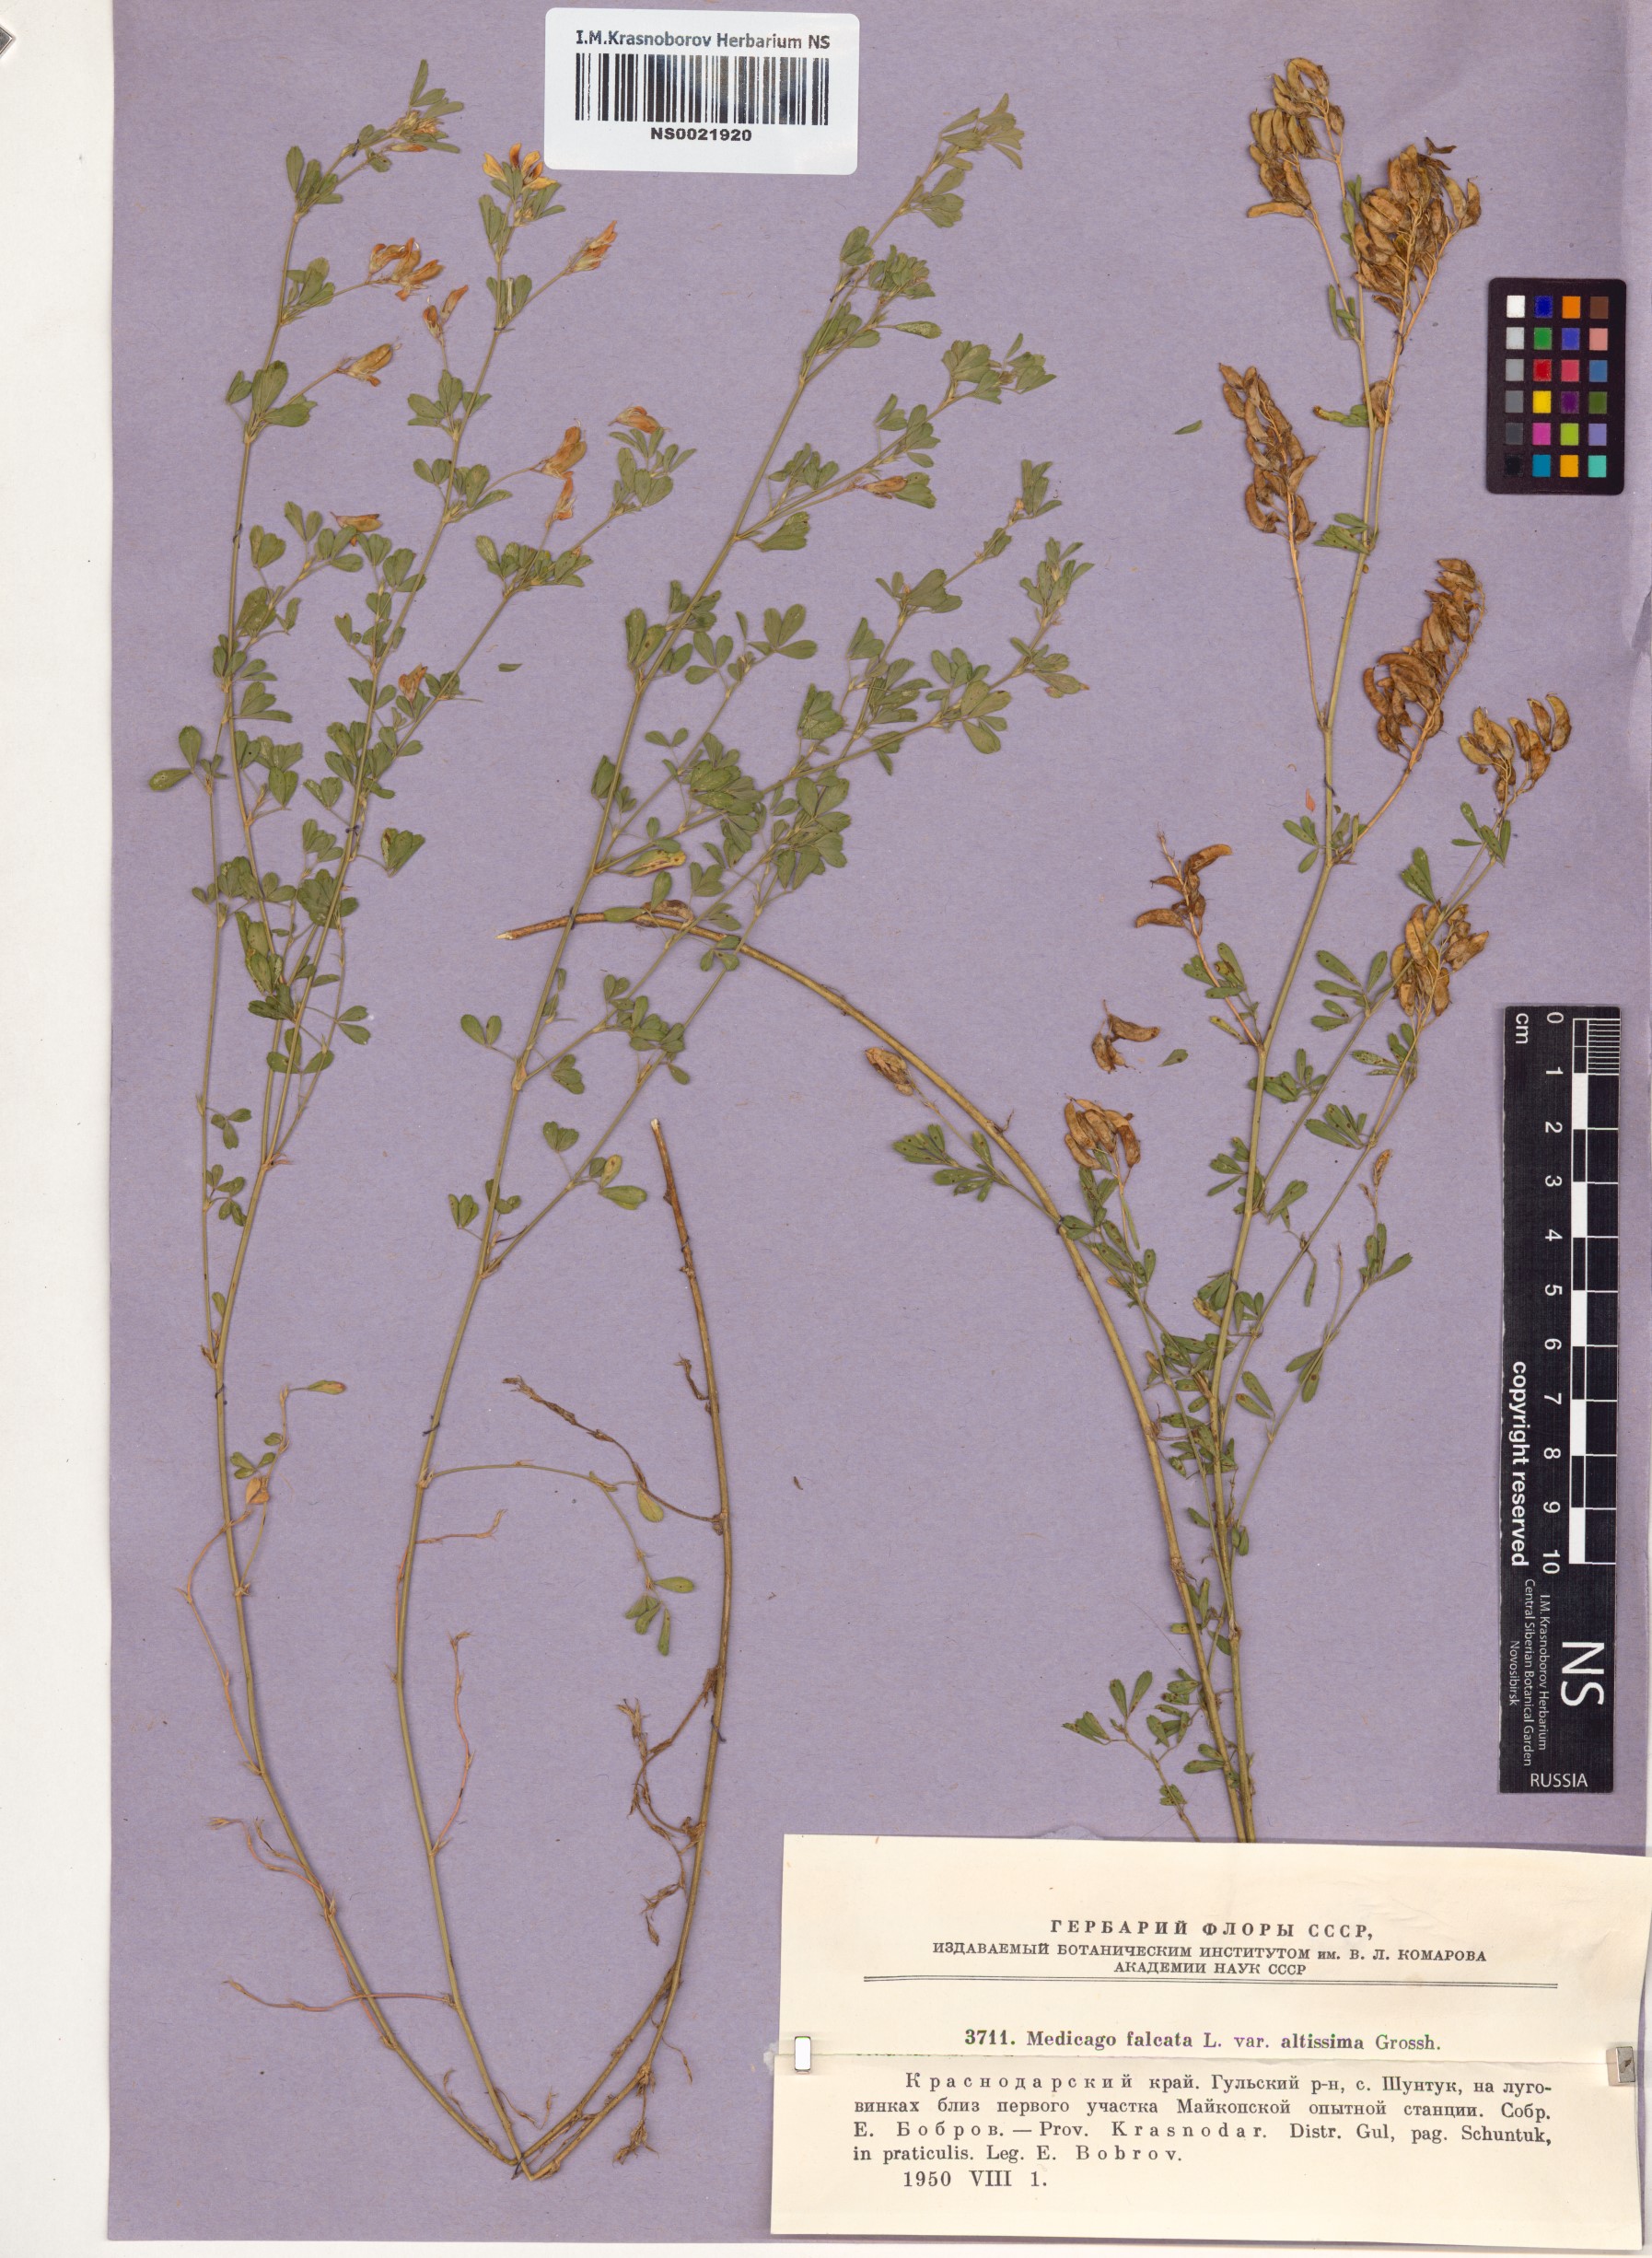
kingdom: Plantae
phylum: Tracheophyta
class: Magnoliopsida
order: Fabales
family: Fabaceae
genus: Medicago
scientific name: Medicago falcata
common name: Sickle medick
